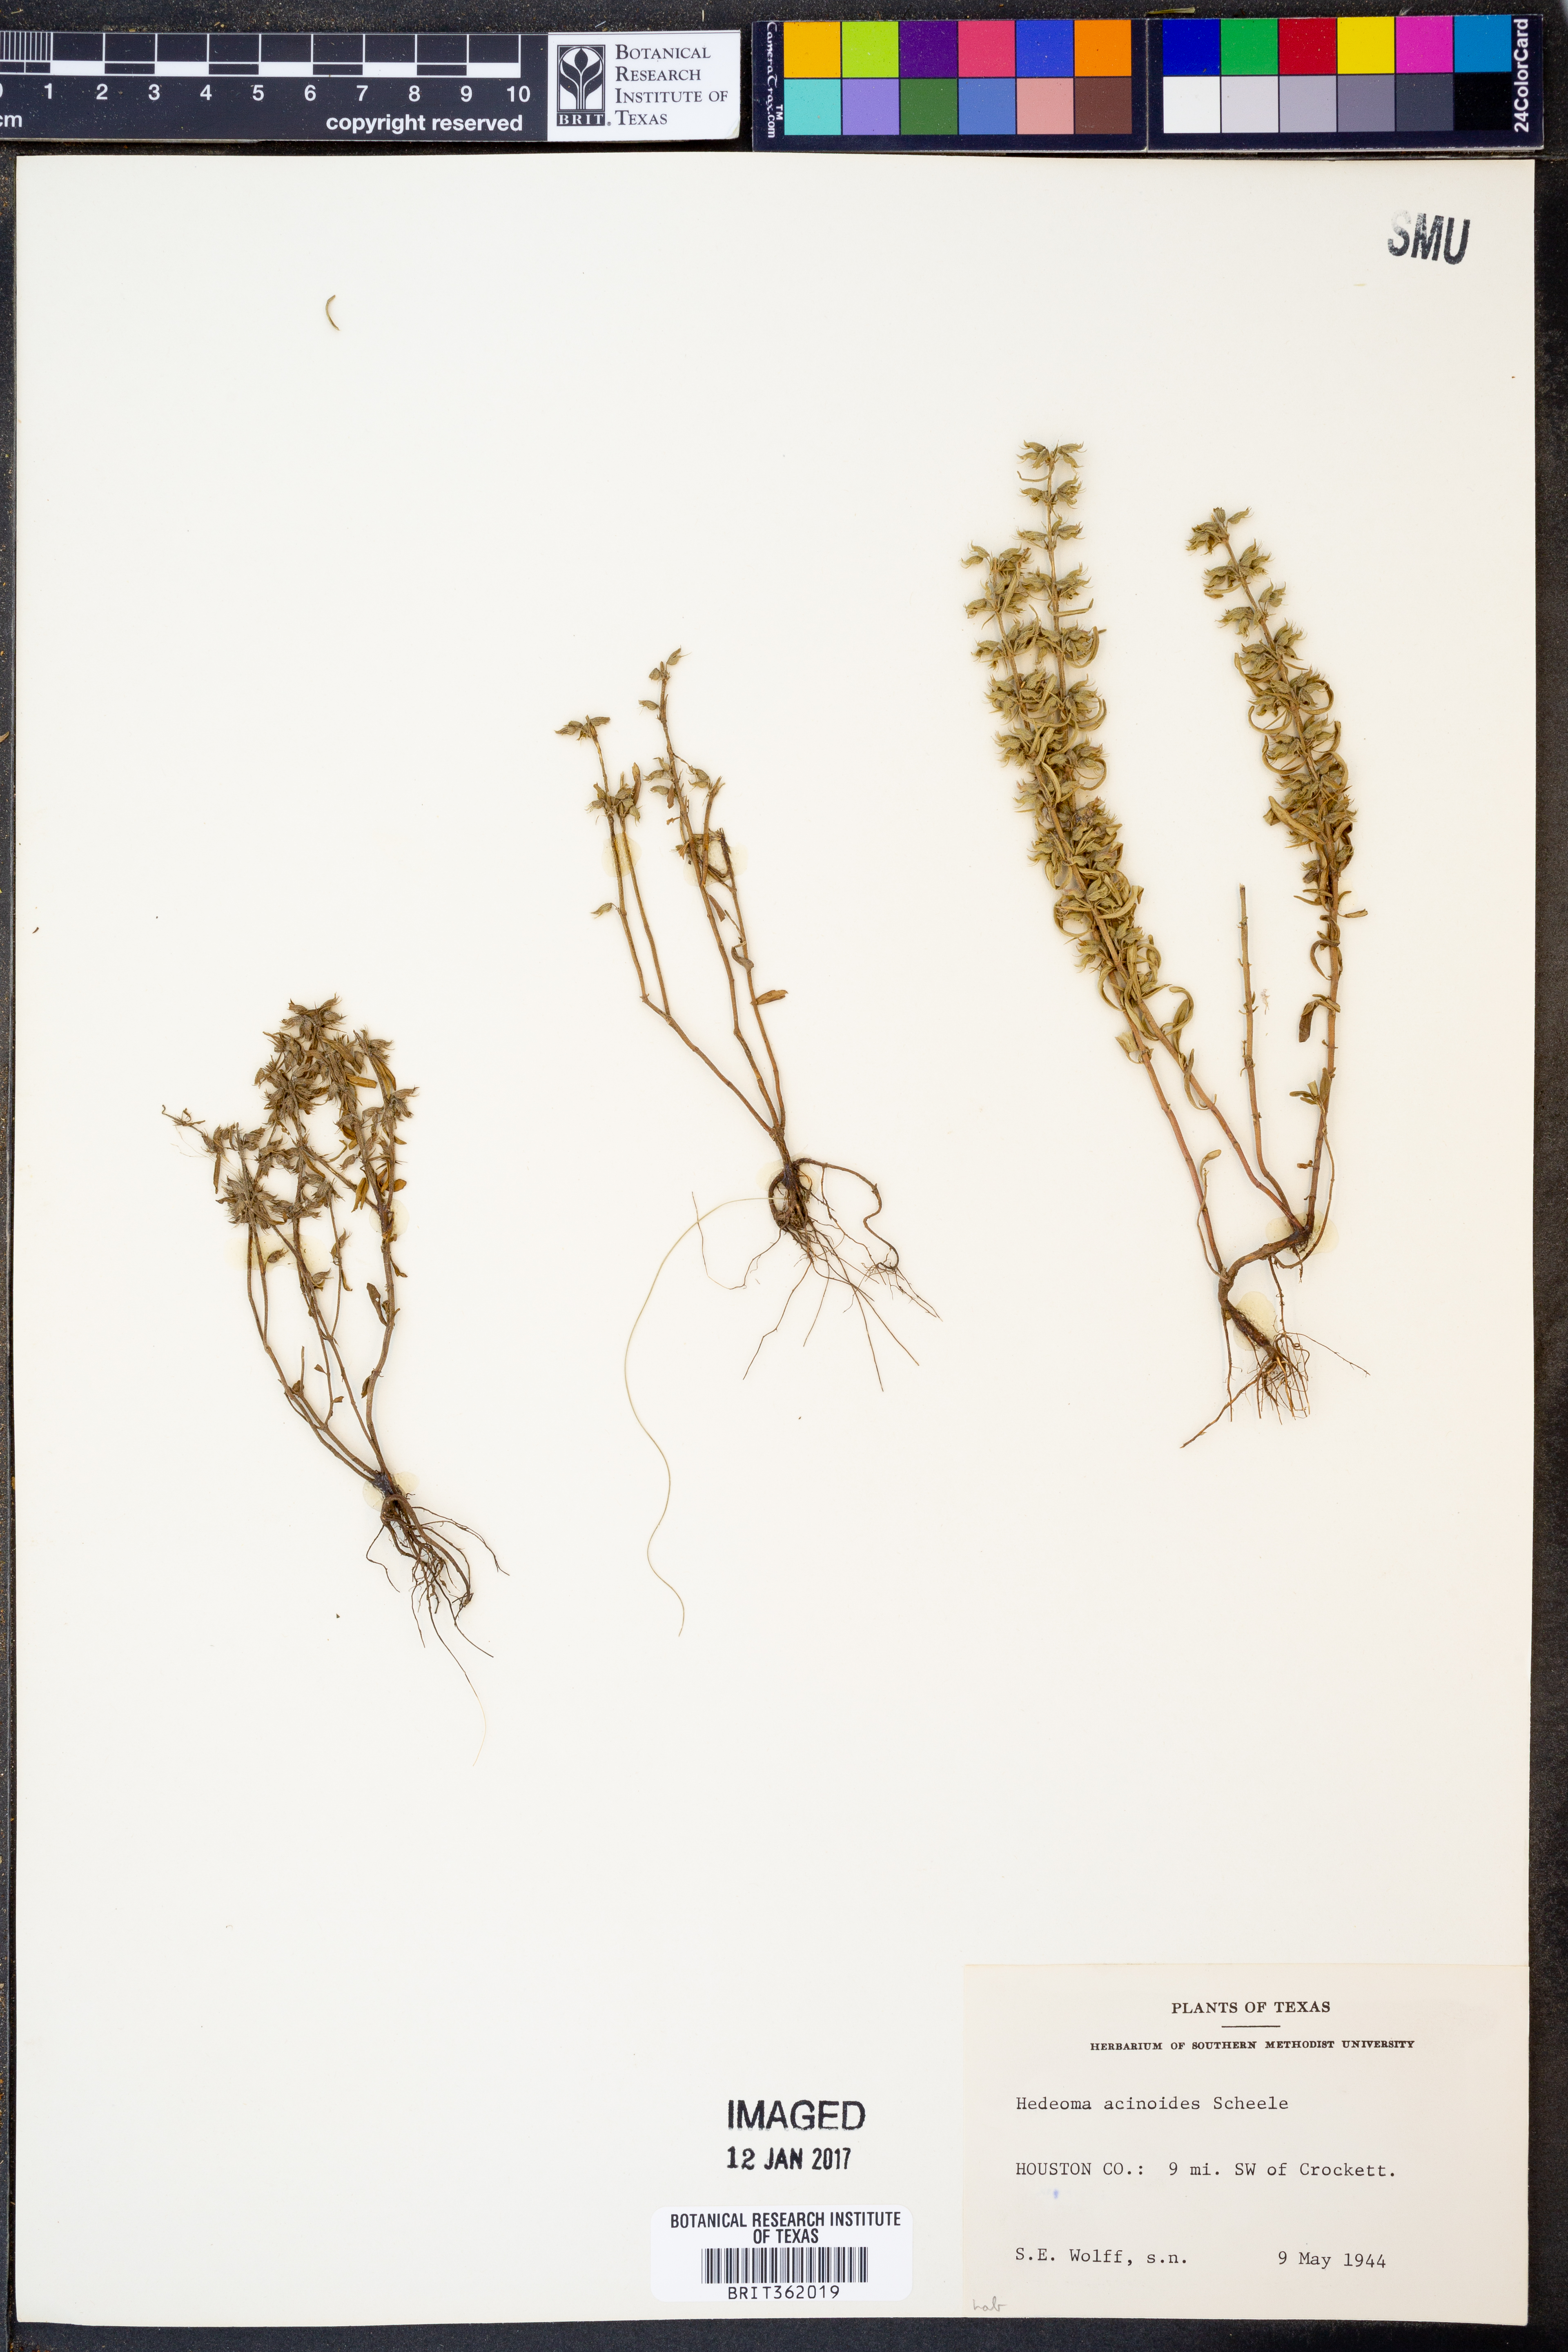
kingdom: Plantae
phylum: Tracheophyta
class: Magnoliopsida
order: Lamiales
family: Lamiaceae
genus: Hedeoma
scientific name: Hedeoma acinoides
